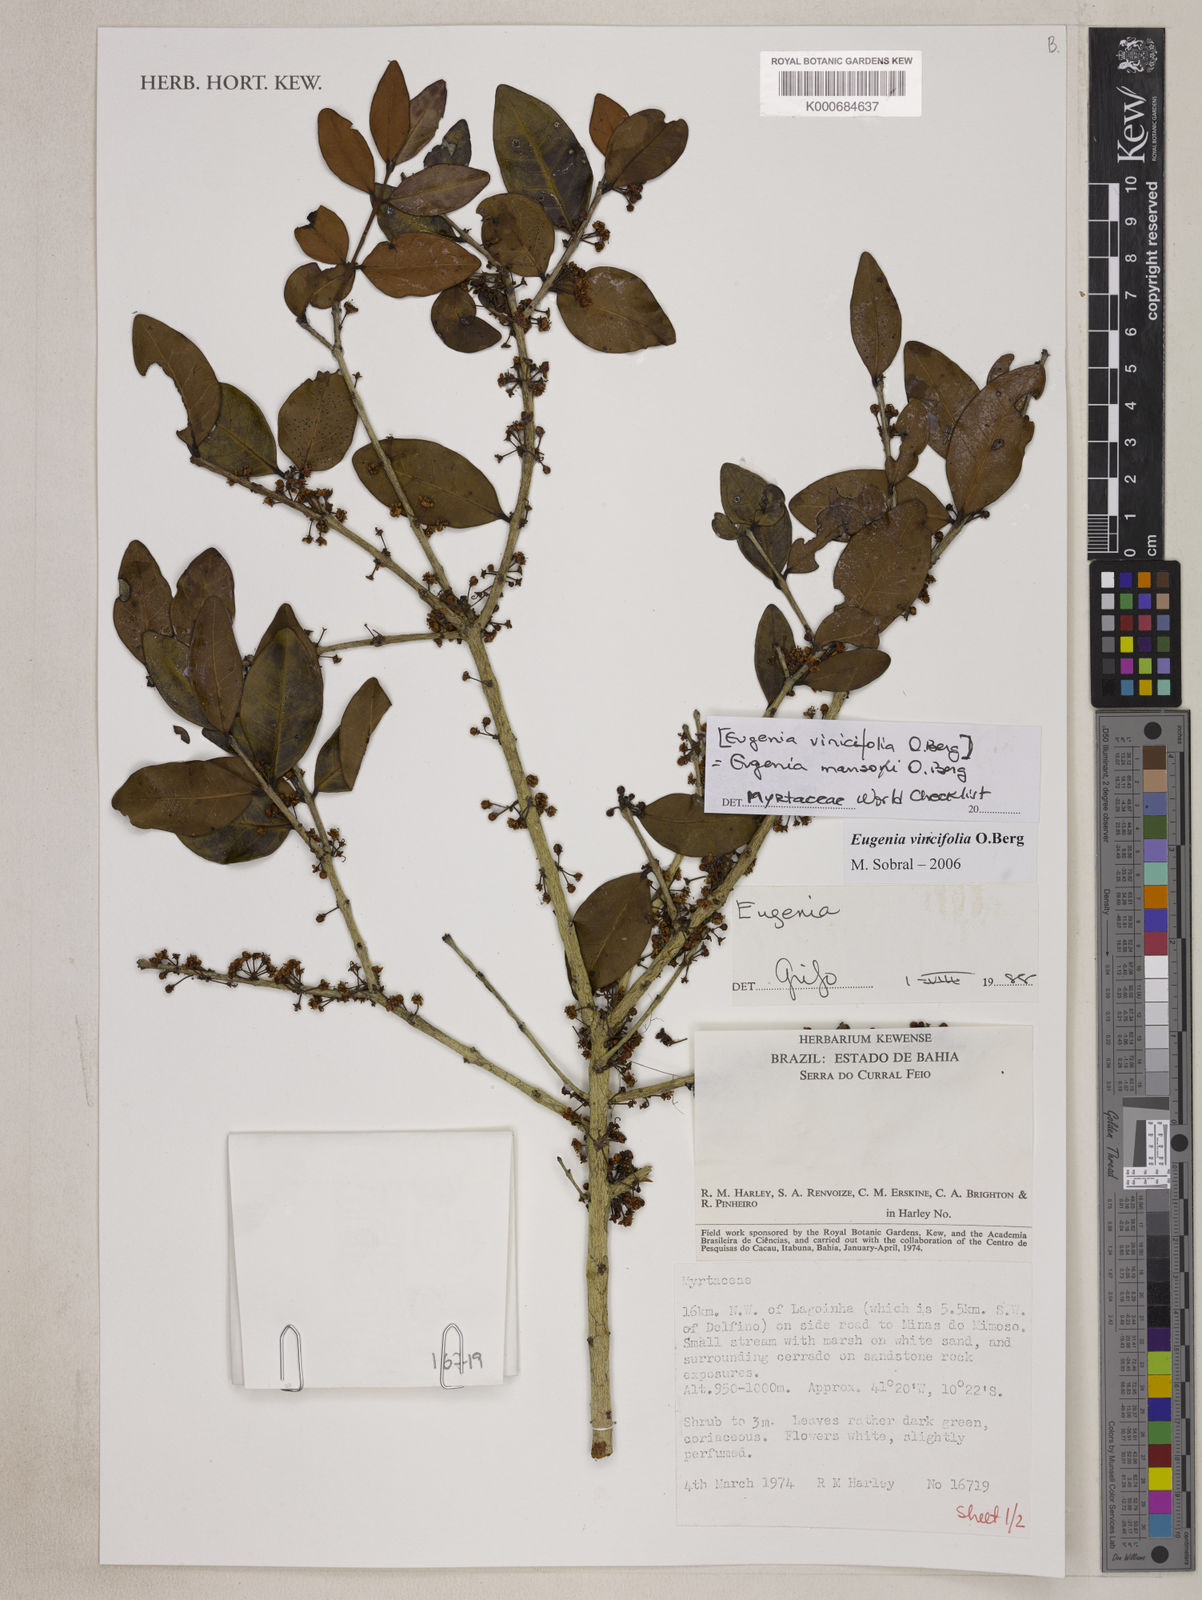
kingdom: Plantae
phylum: Tracheophyta
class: Magnoliopsida
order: Myrtales
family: Myrtaceae
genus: Eugenia
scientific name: Eugenia mansoi
